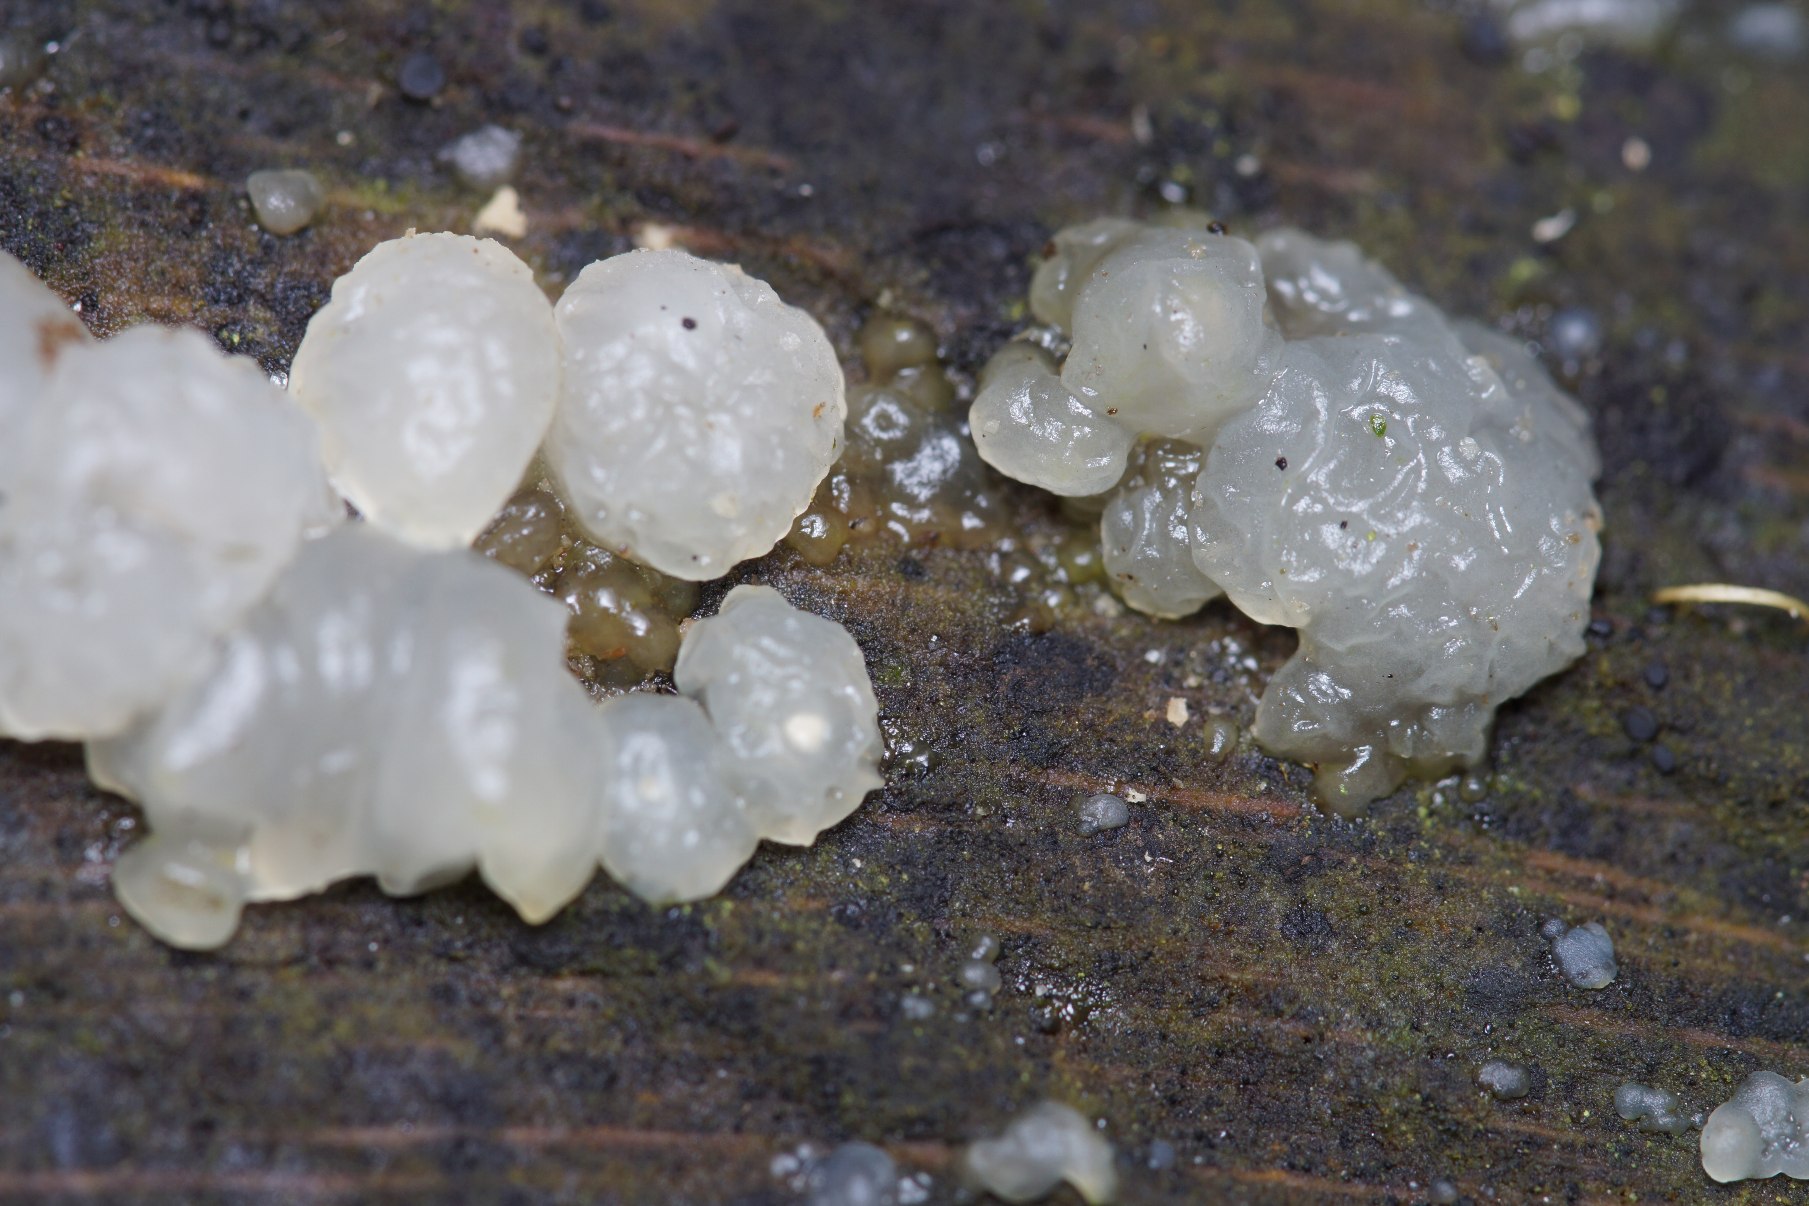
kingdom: Fungi
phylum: Basidiomycota
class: Agaricomycetes
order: Auriculariales
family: Hyaloriaceae
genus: Myxarium
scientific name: Myxarium nucleatum
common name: Klar bævretop
